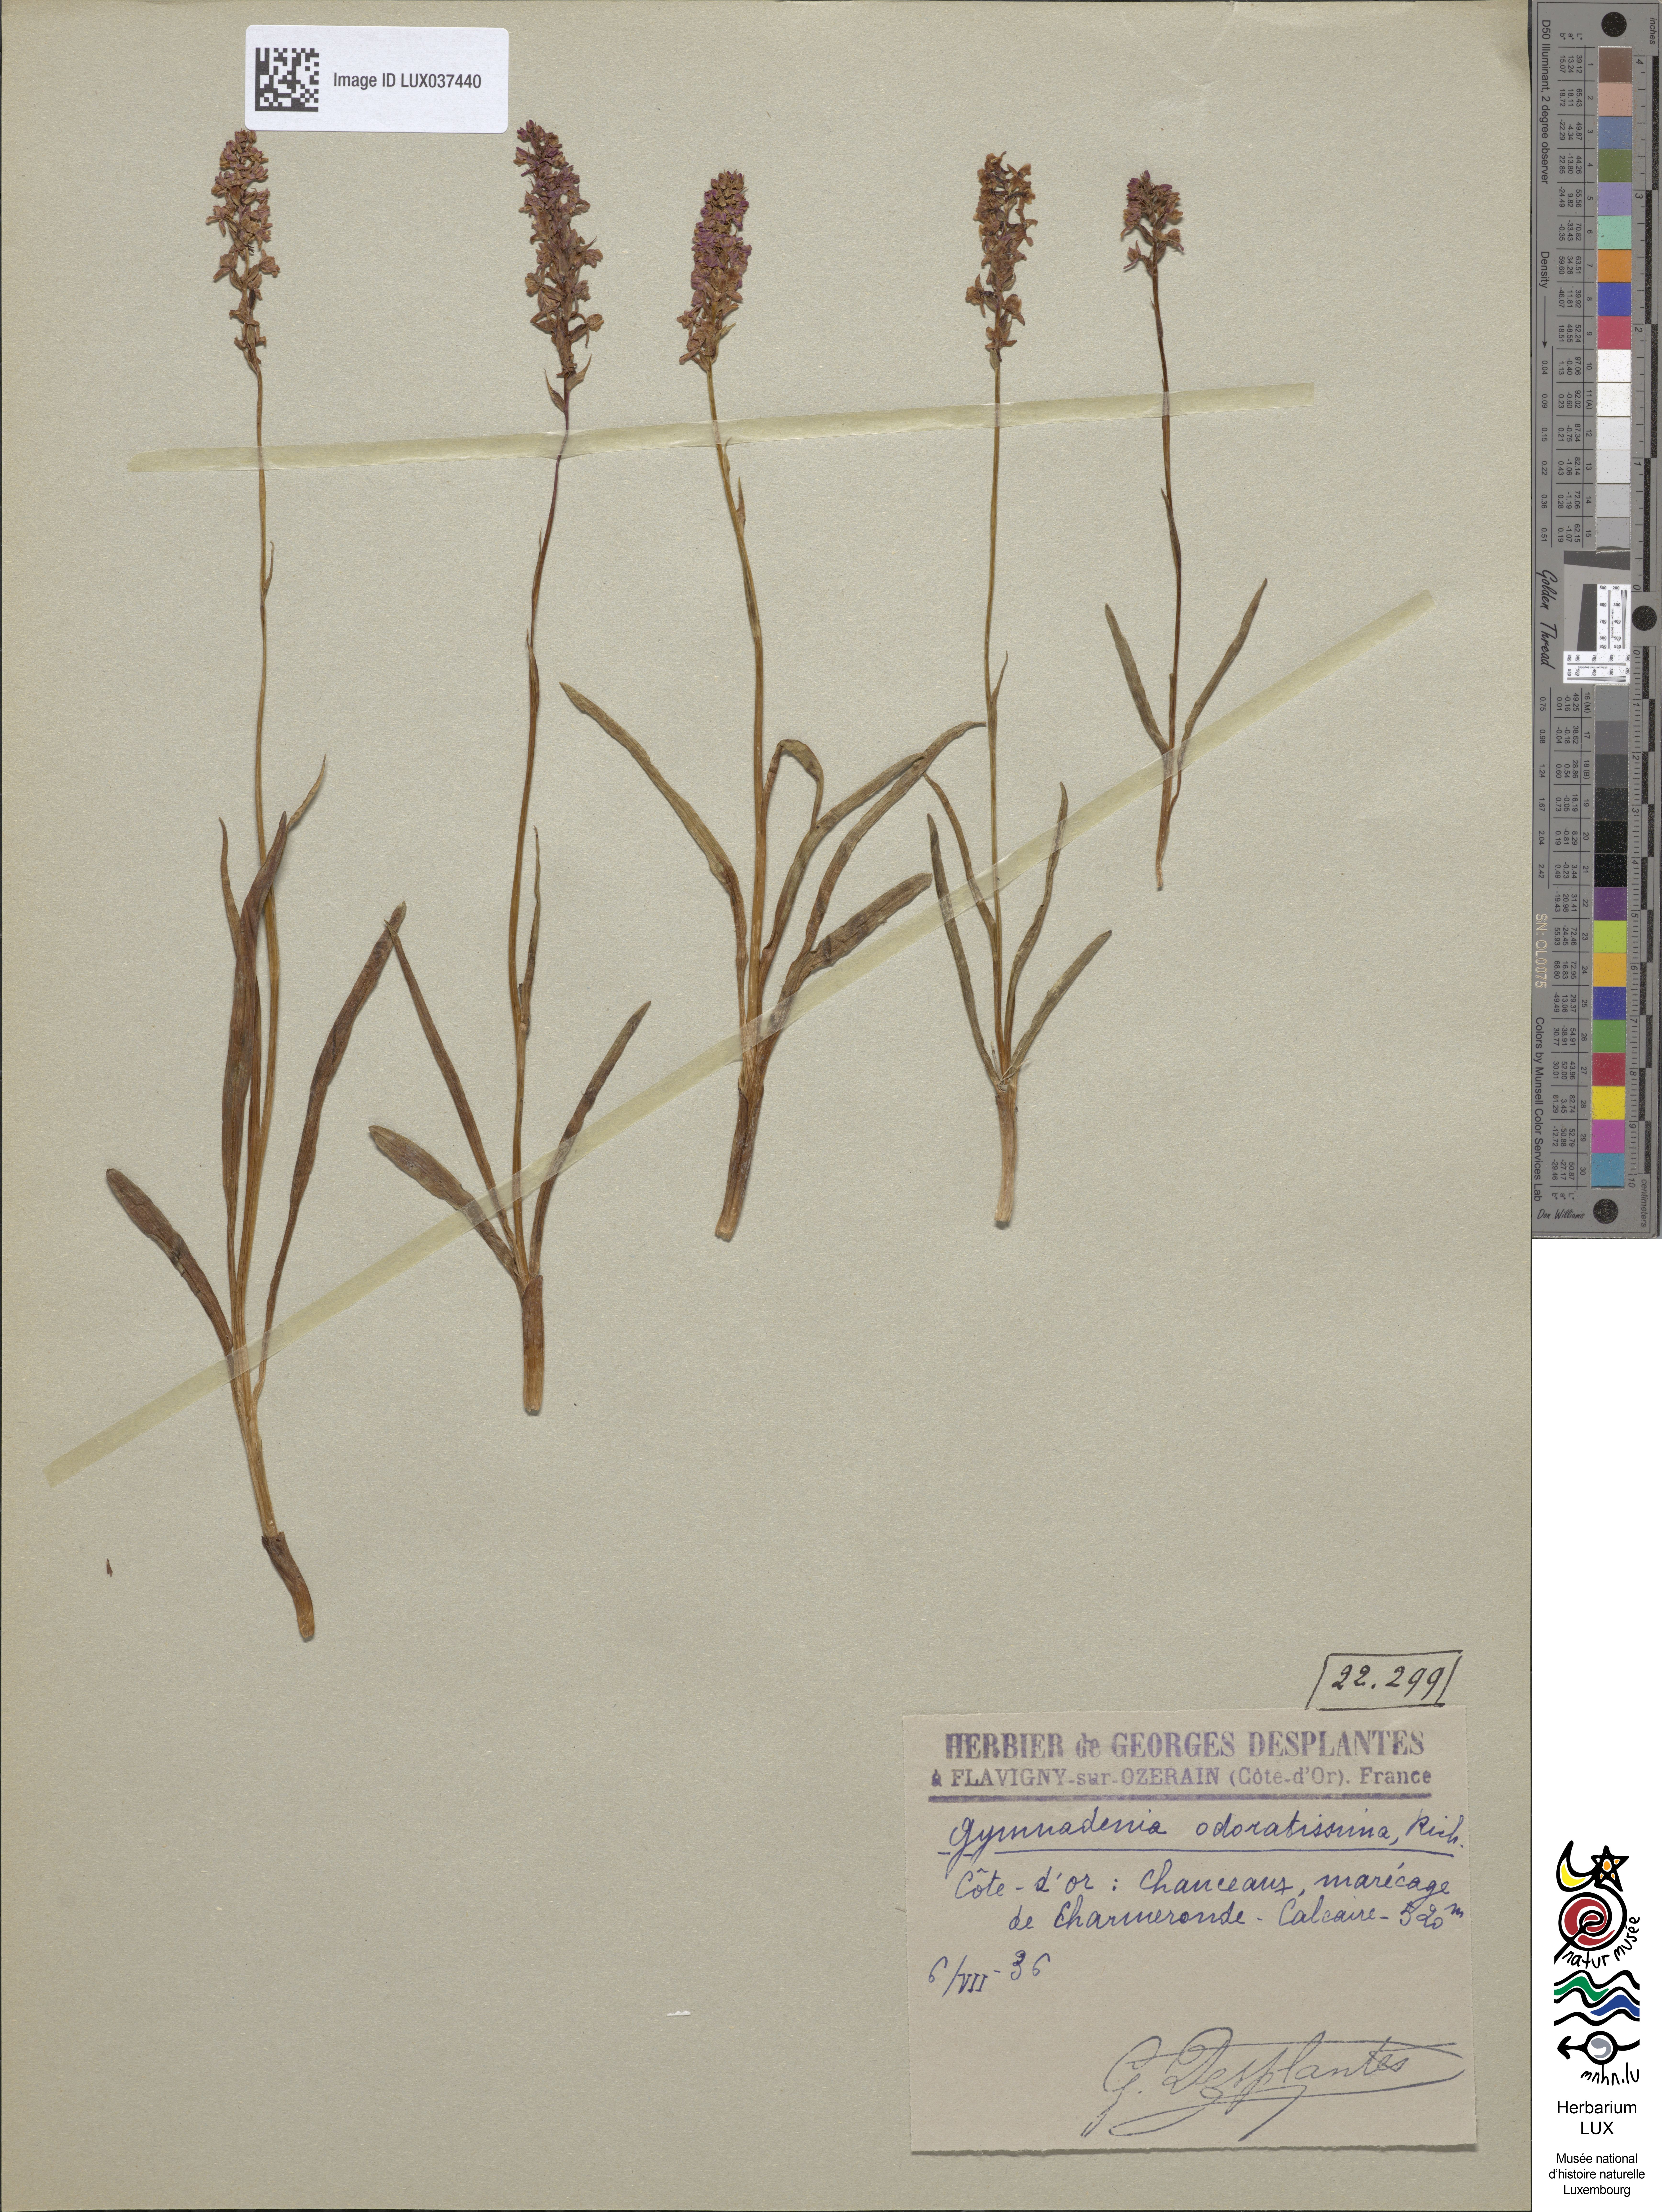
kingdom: Plantae
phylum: Tracheophyta
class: Liliopsida
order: Asparagales
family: Orchidaceae
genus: Gymnadenia
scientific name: Gymnadenia odoratissima
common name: Scented gymnadenia
